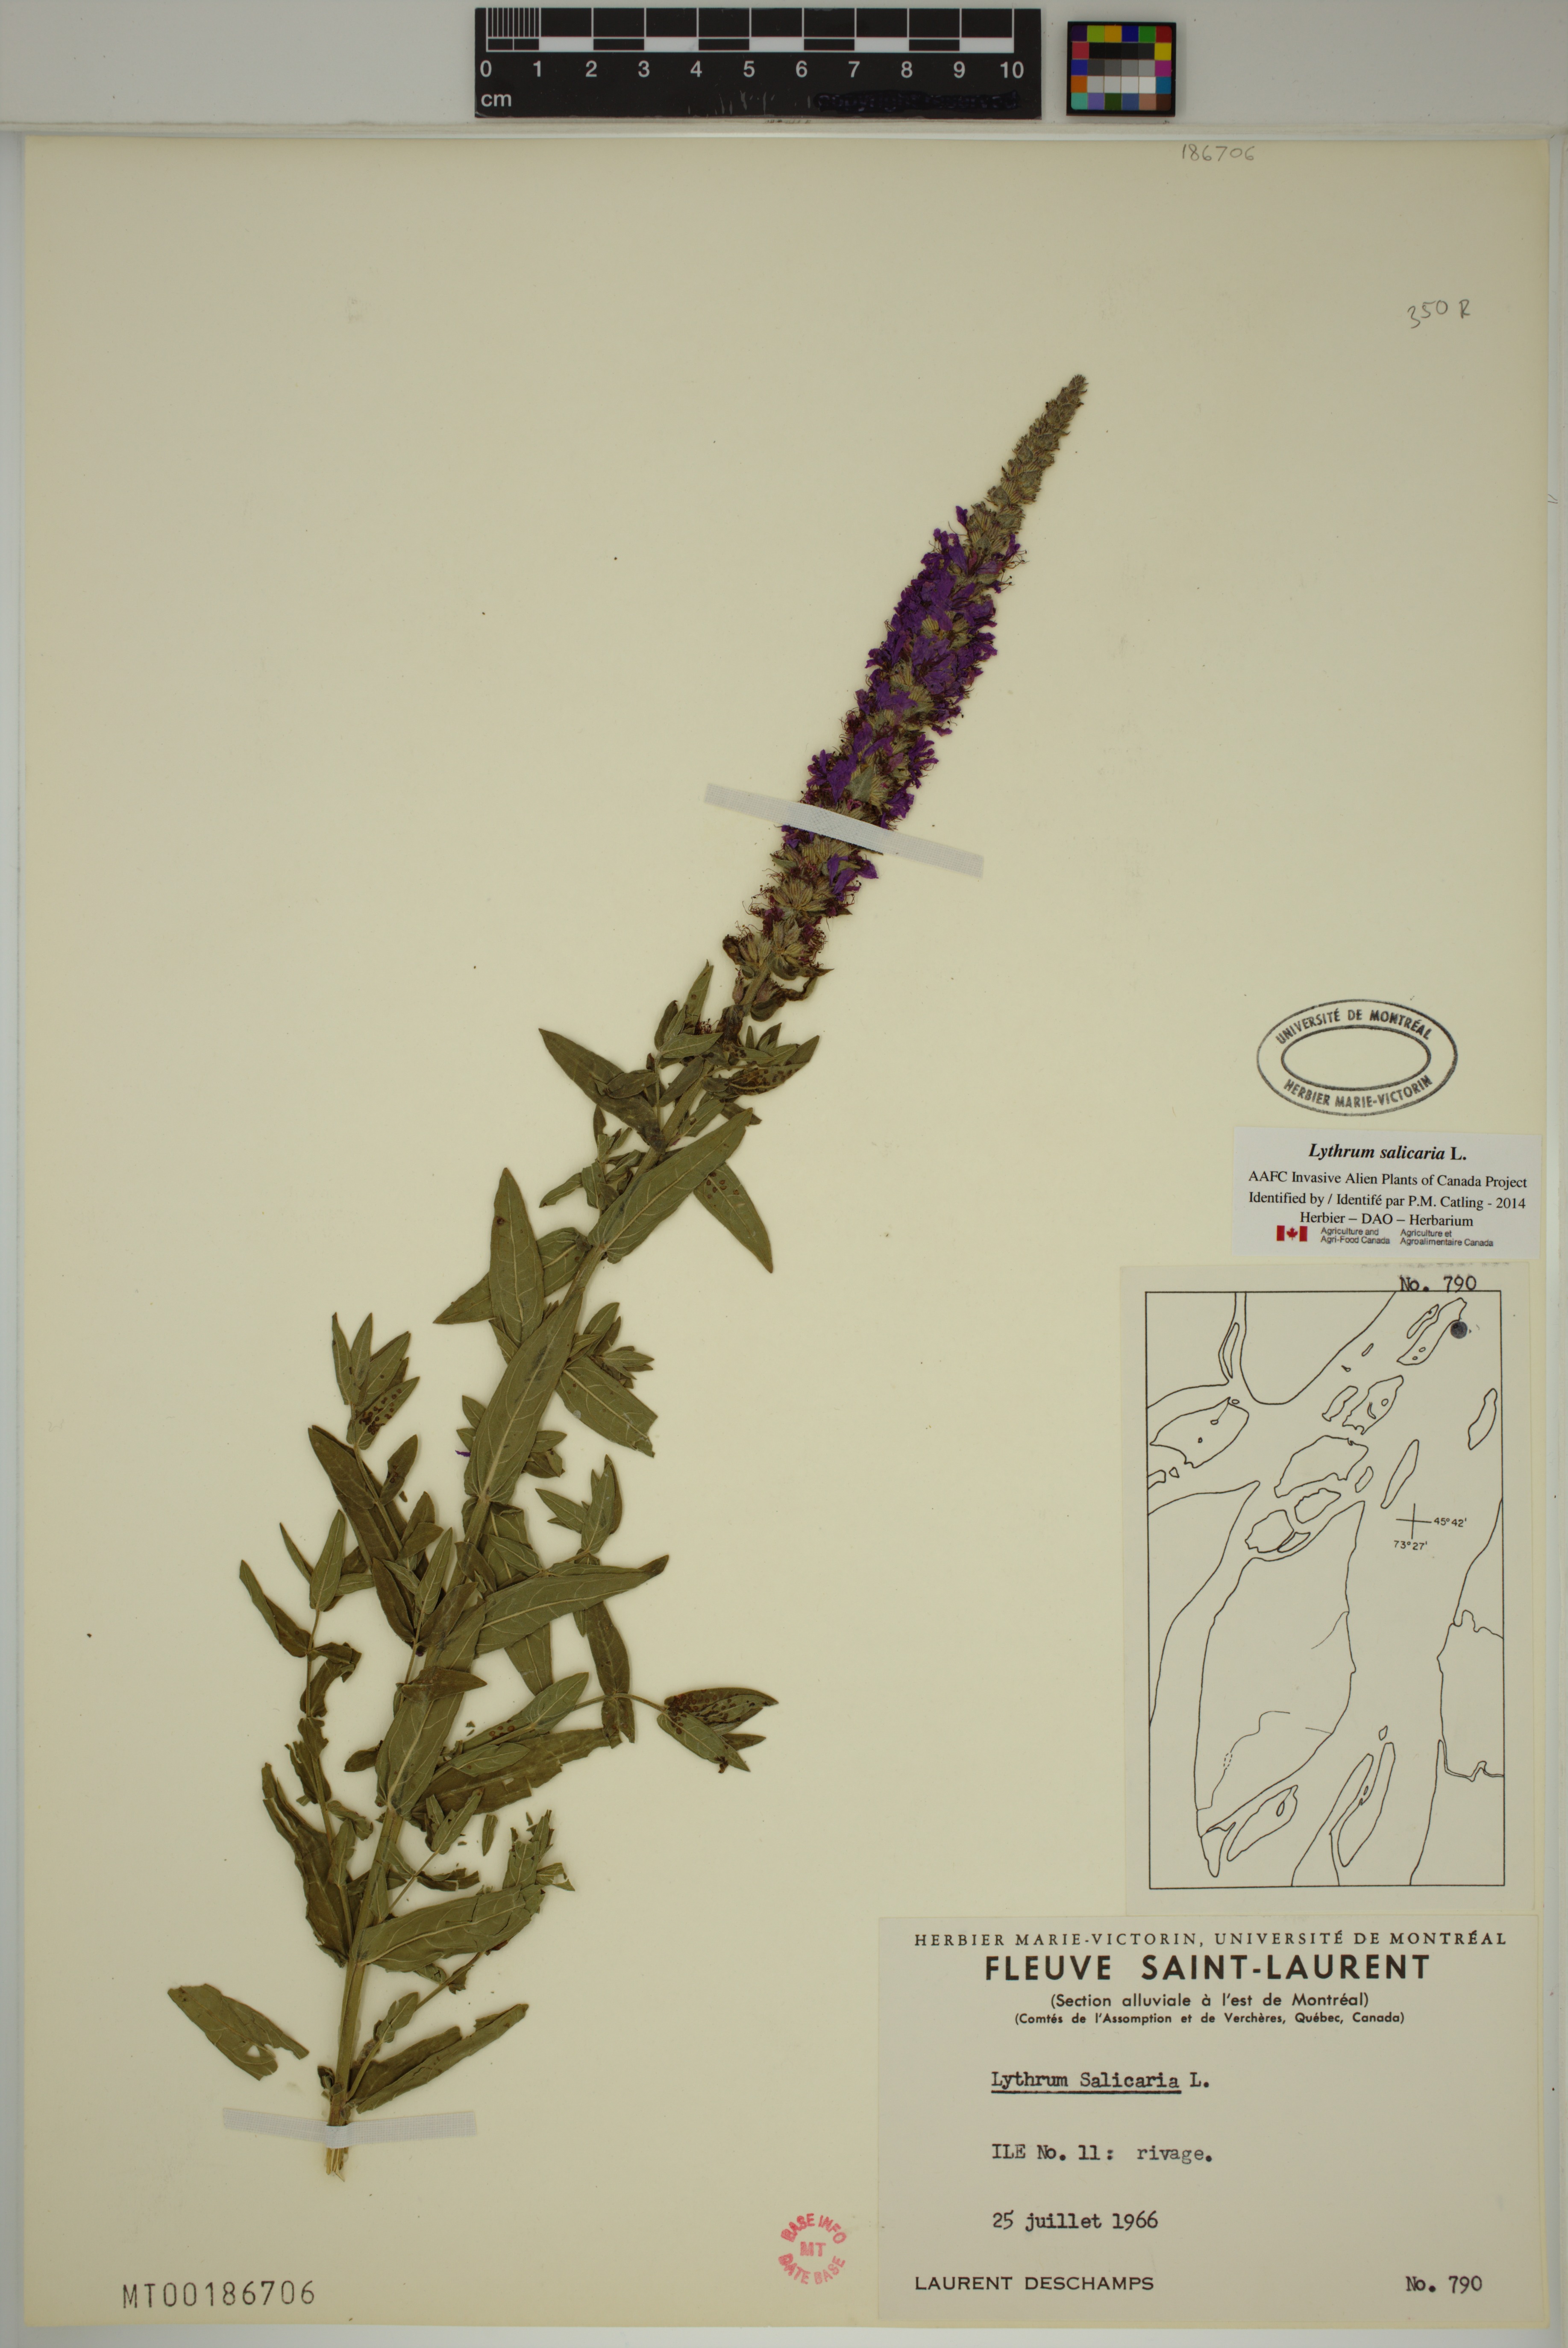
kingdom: Plantae
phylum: Tracheophyta
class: Magnoliopsida
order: Myrtales
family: Lythraceae
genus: Lythrum
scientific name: Lythrum salicaria
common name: Purple loosestrife
